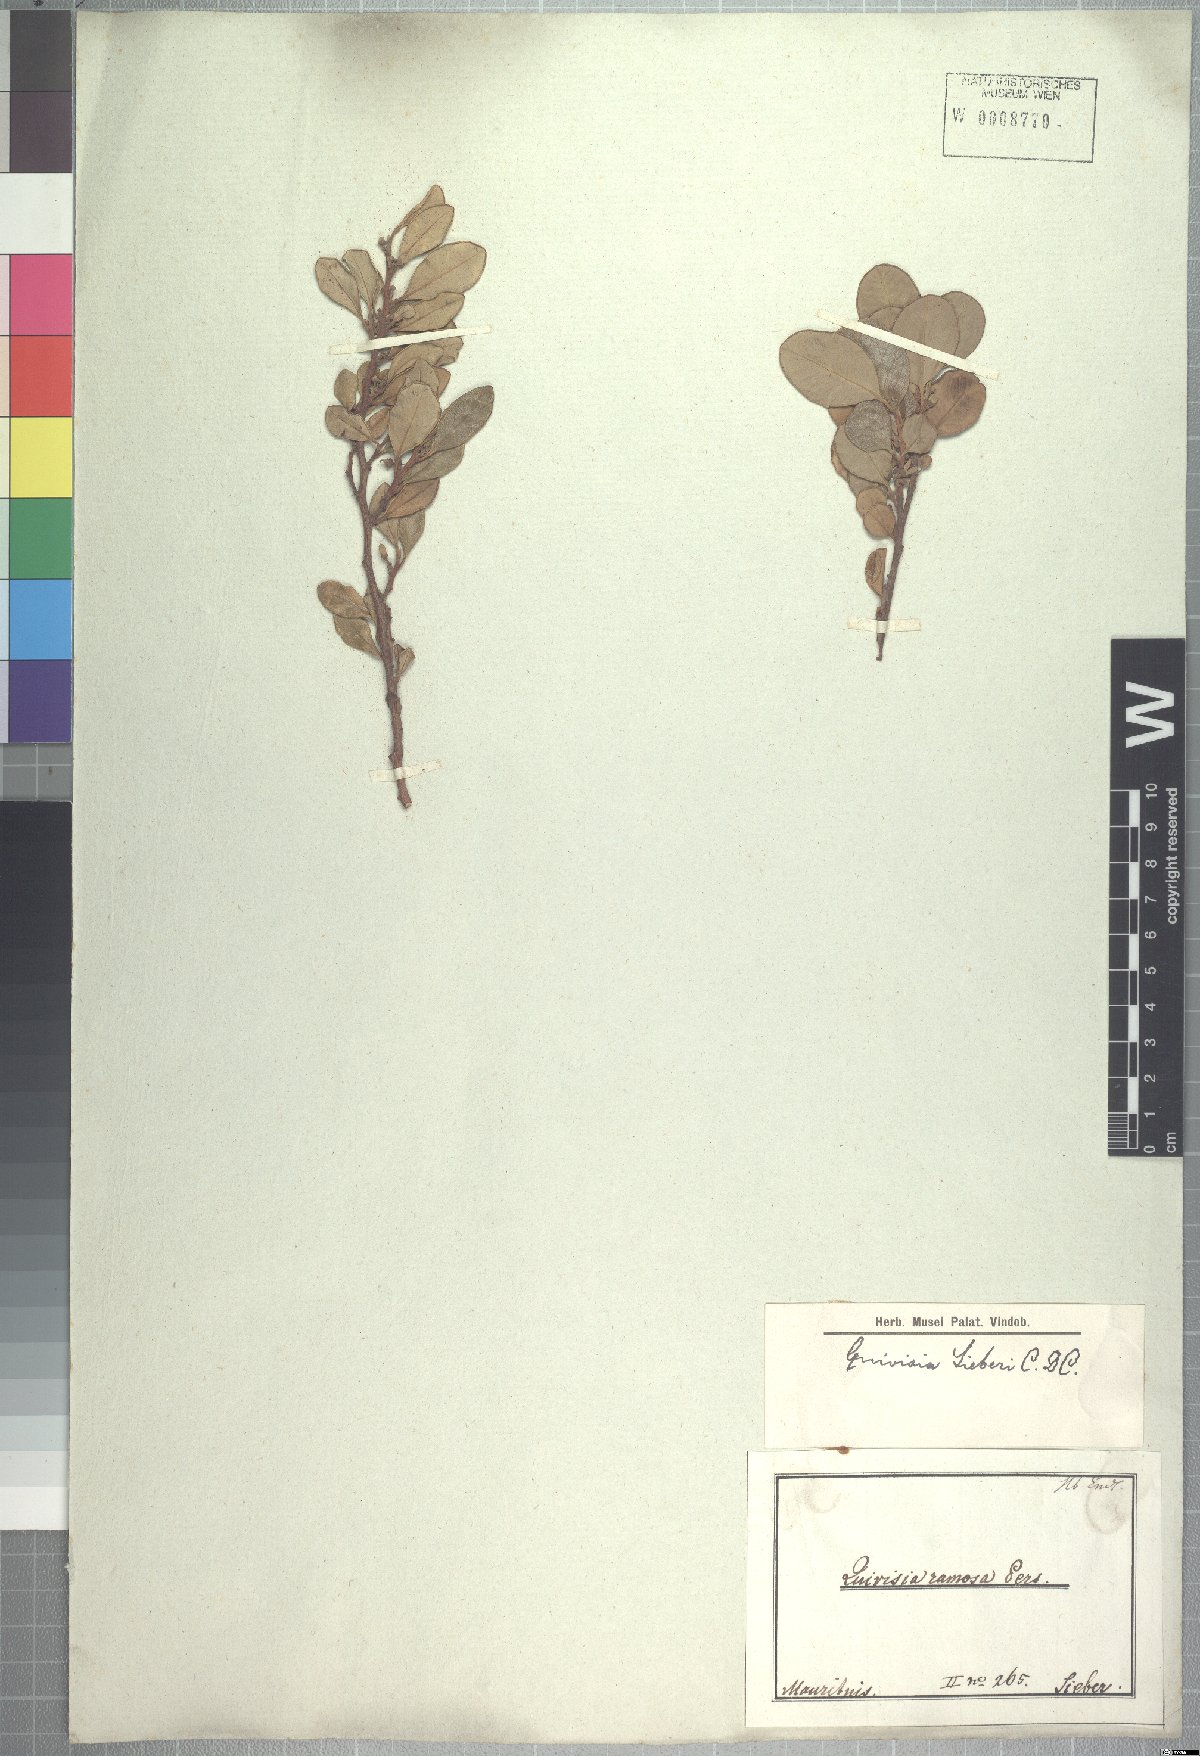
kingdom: Plantae
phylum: Tracheophyta
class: Magnoliopsida
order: Sapindales
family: Meliaceae
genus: Turraea
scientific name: Turraea rutilans
